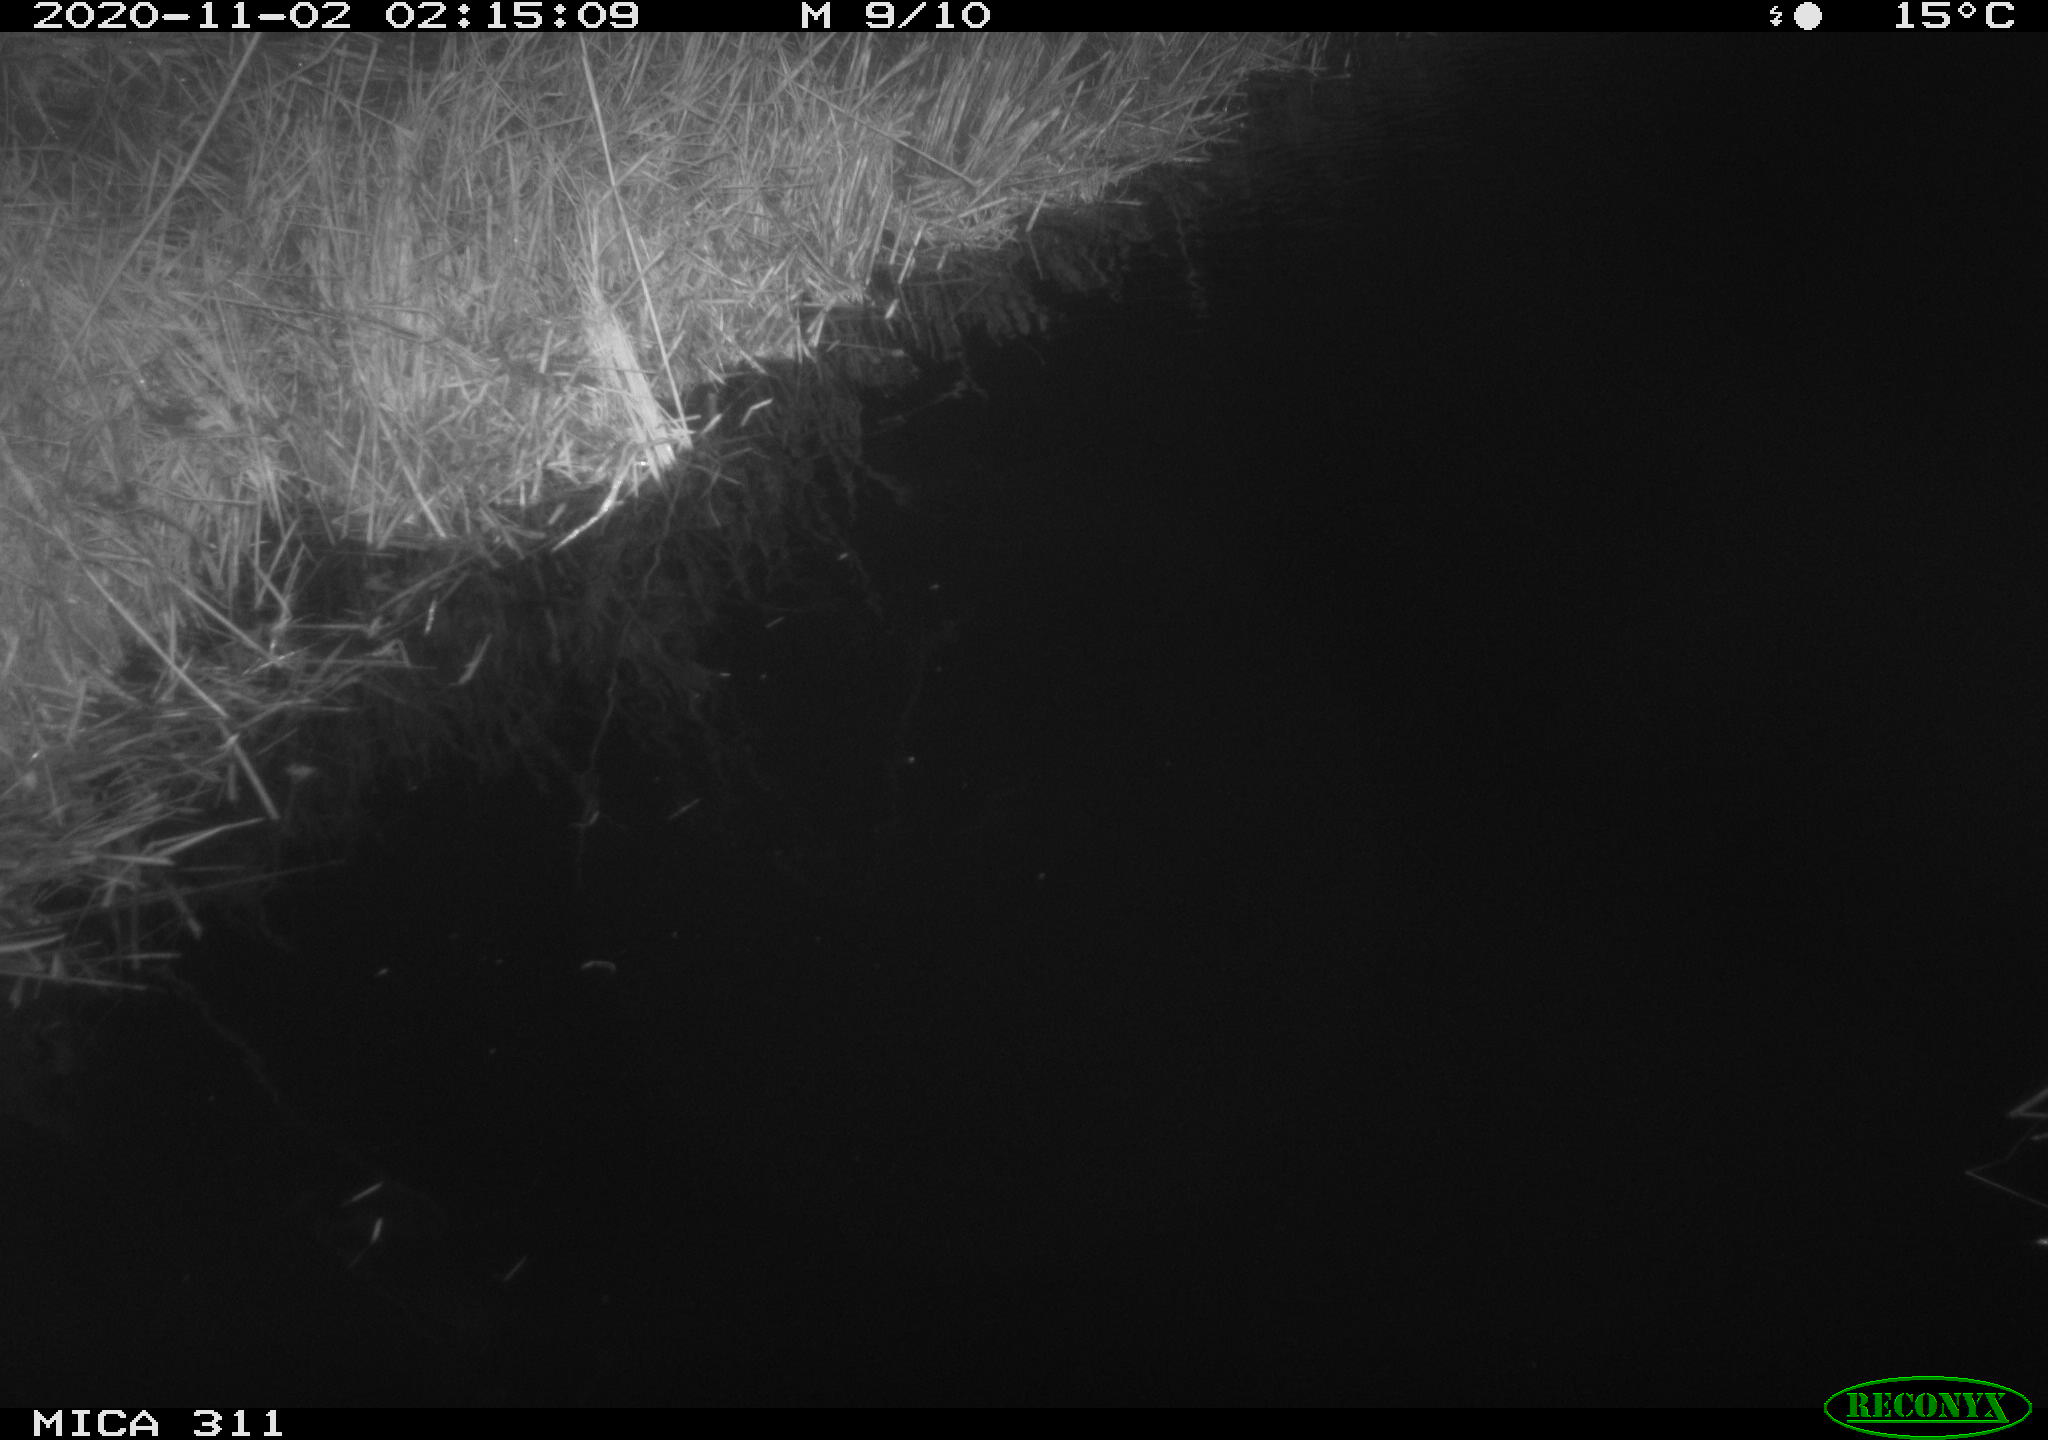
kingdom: Animalia
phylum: Chordata
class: Mammalia
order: Rodentia
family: Muridae
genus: Rattus
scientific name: Rattus norvegicus
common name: Brown rat
